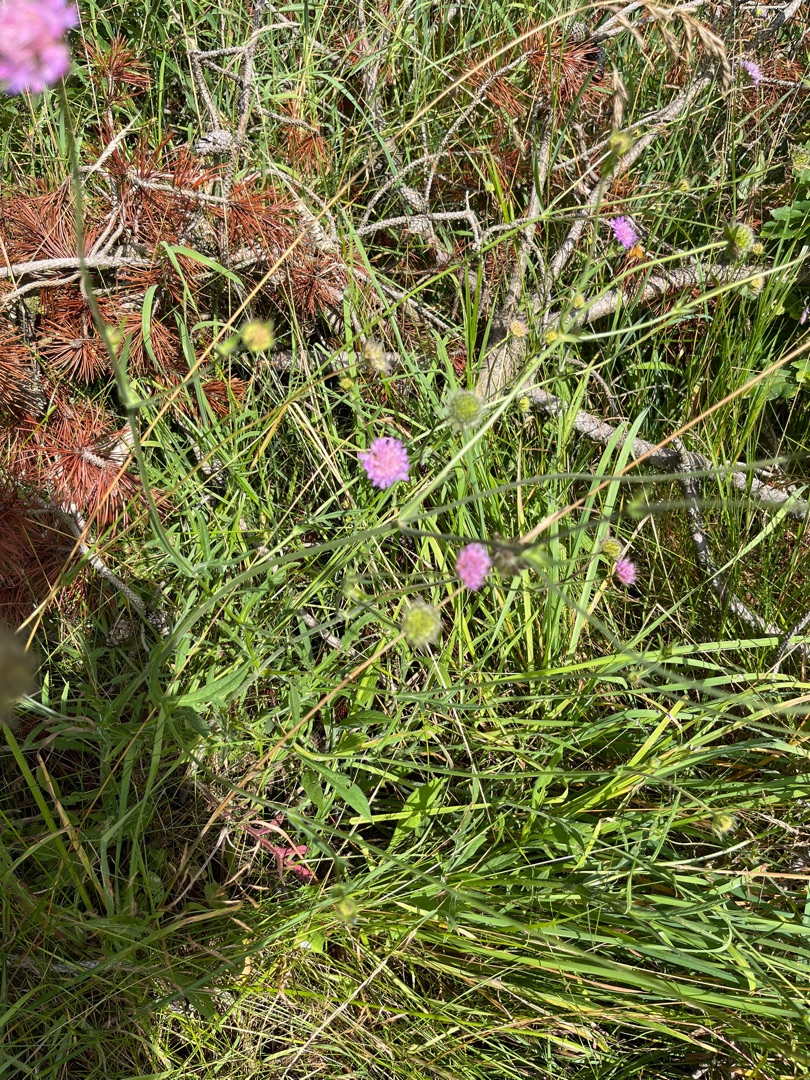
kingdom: Plantae
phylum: Tracheophyta
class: Magnoliopsida
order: Dipsacales
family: Caprifoliaceae
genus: Knautia
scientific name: Knautia arvensis
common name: Blåhat
